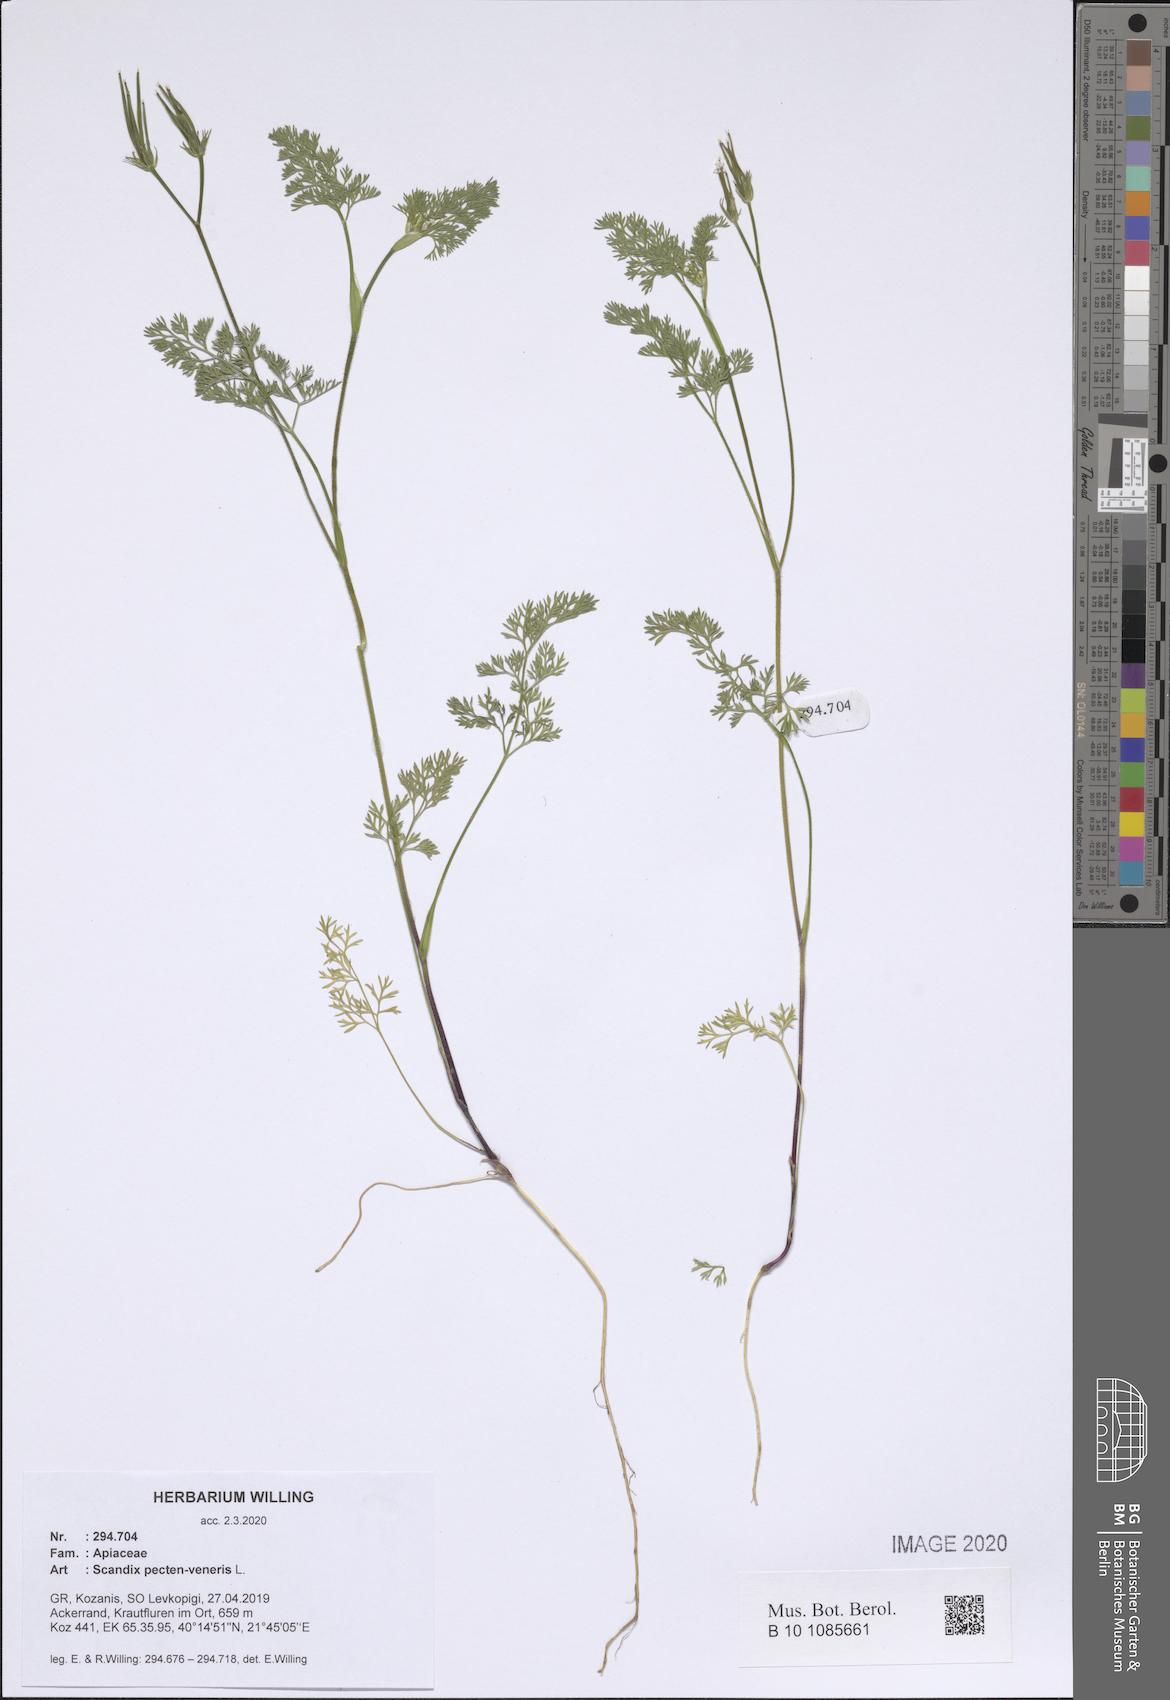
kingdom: Plantae
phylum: Tracheophyta
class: Magnoliopsida
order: Apiales
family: Apiaceae
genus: Scandix
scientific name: Scandix pecten-veneris
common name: Shepherd's-needle
